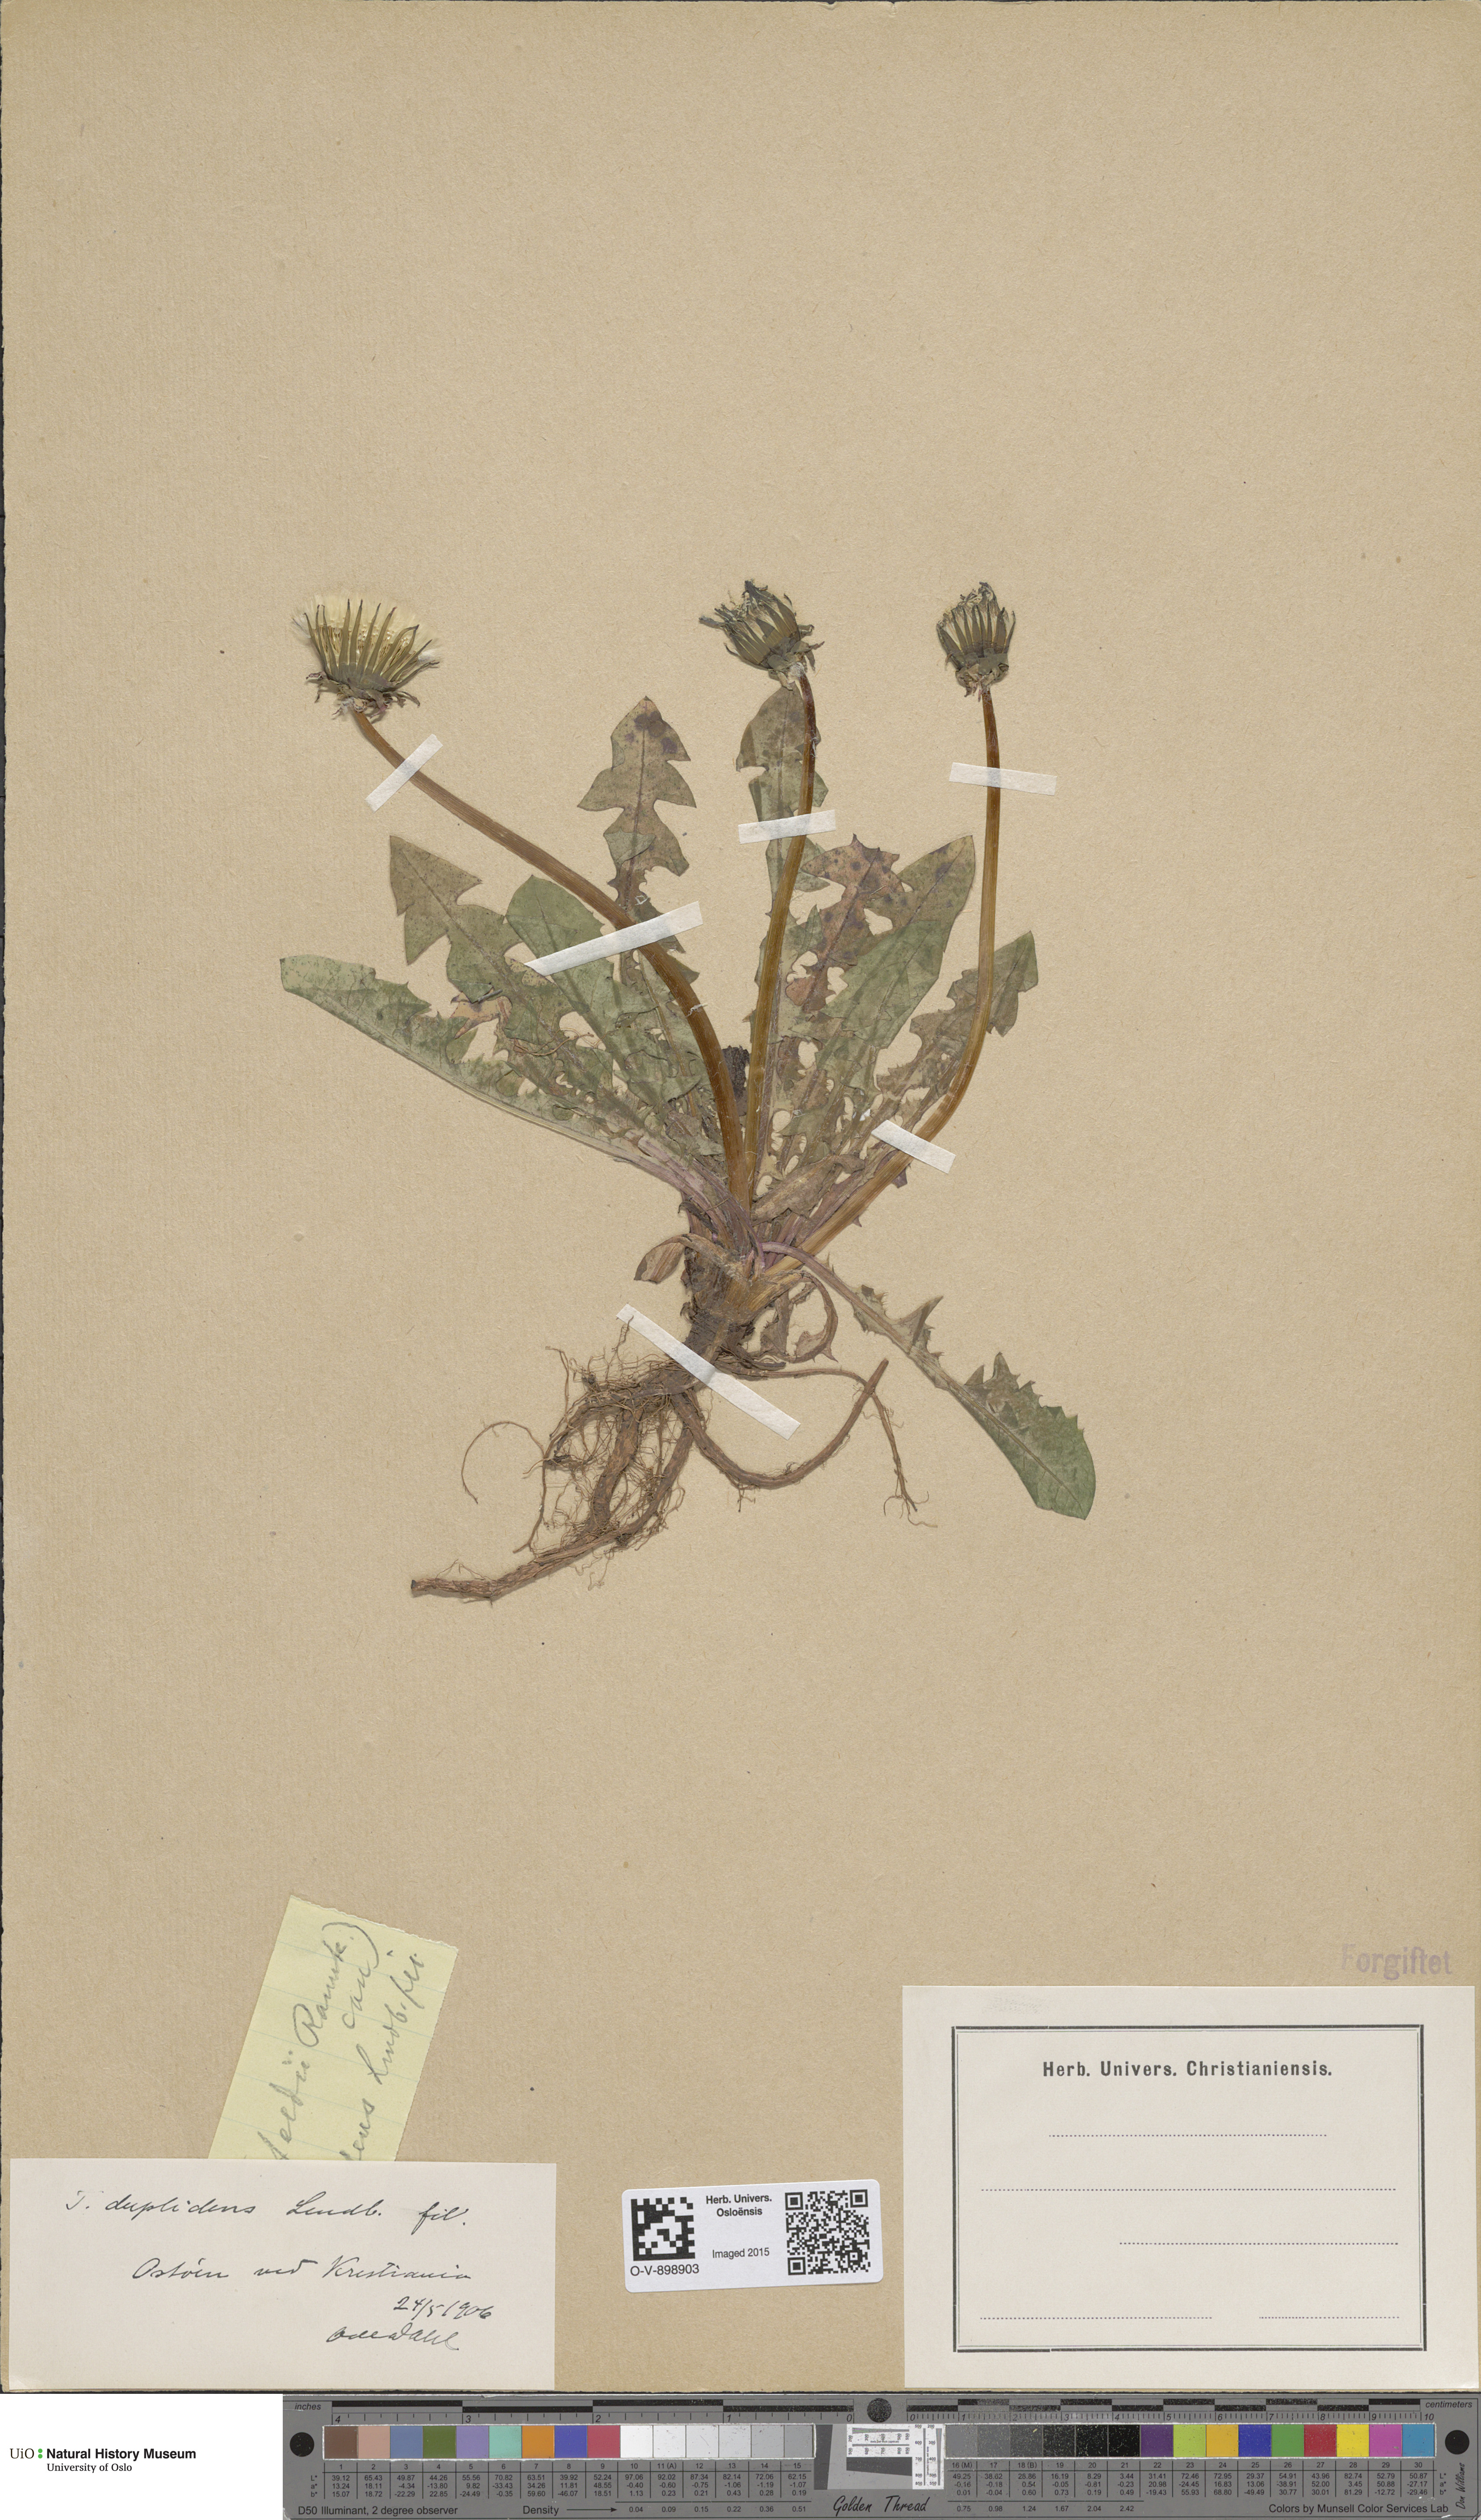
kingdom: Plantae
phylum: Tracheophyta
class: Magnoliopsida
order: Asterales
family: Asteraceae
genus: Taraxacum
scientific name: Taraxacum ostenfeldii
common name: Ostenfeld's dandelion
